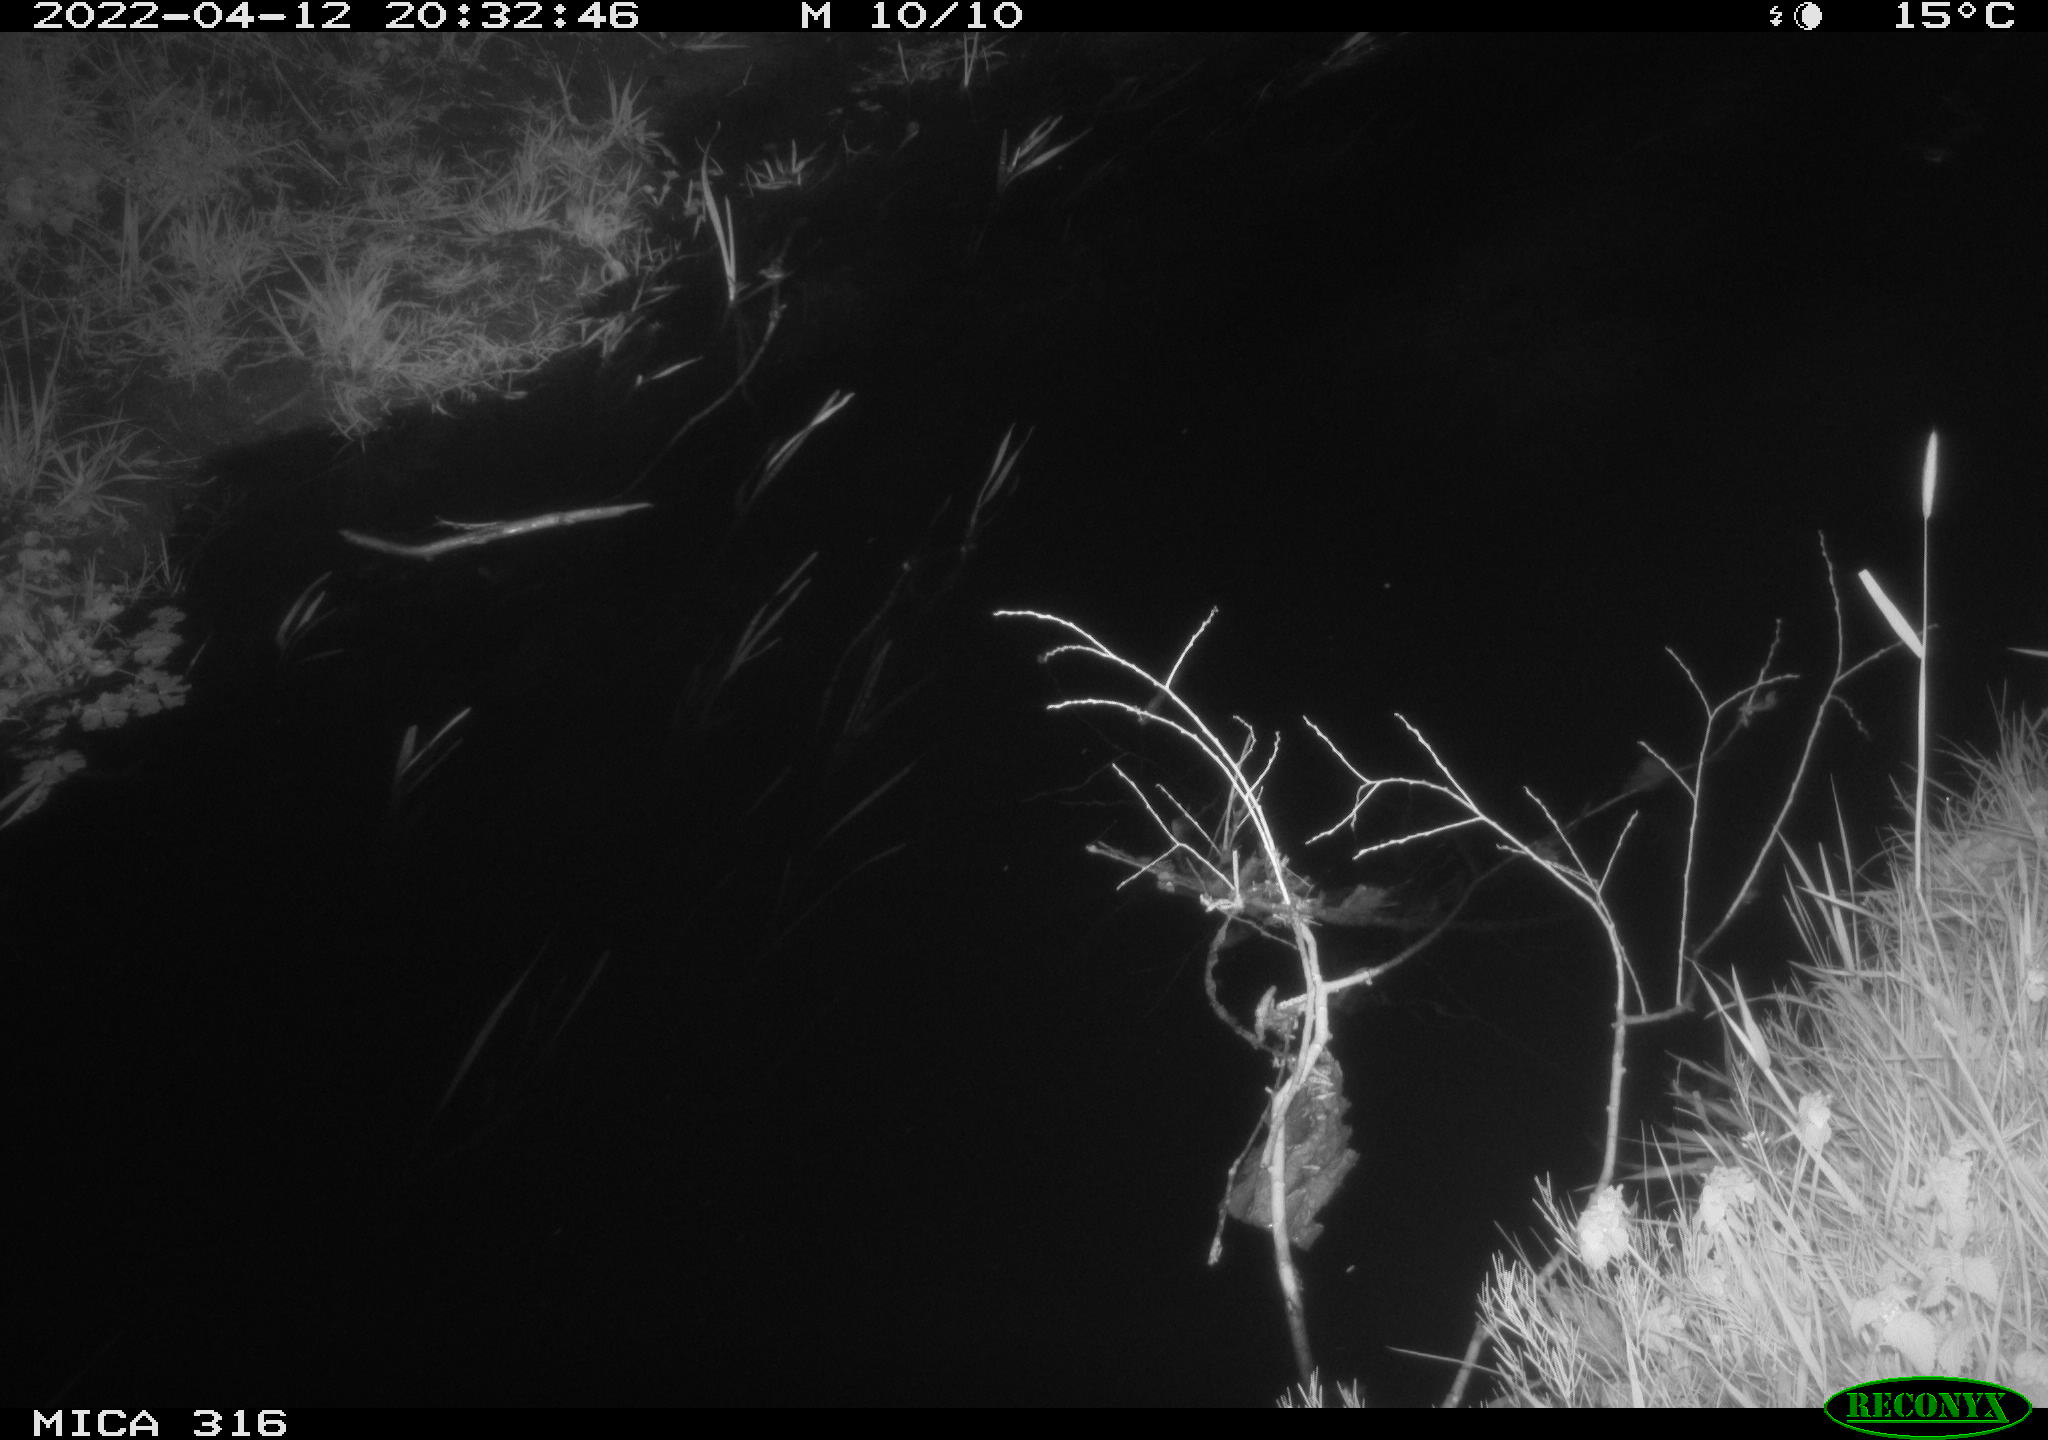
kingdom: Animalia
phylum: Chordata
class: Aves
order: Anseriformes
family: Anatidae
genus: Anas
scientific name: Anas platyrhynchos
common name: Mallard
